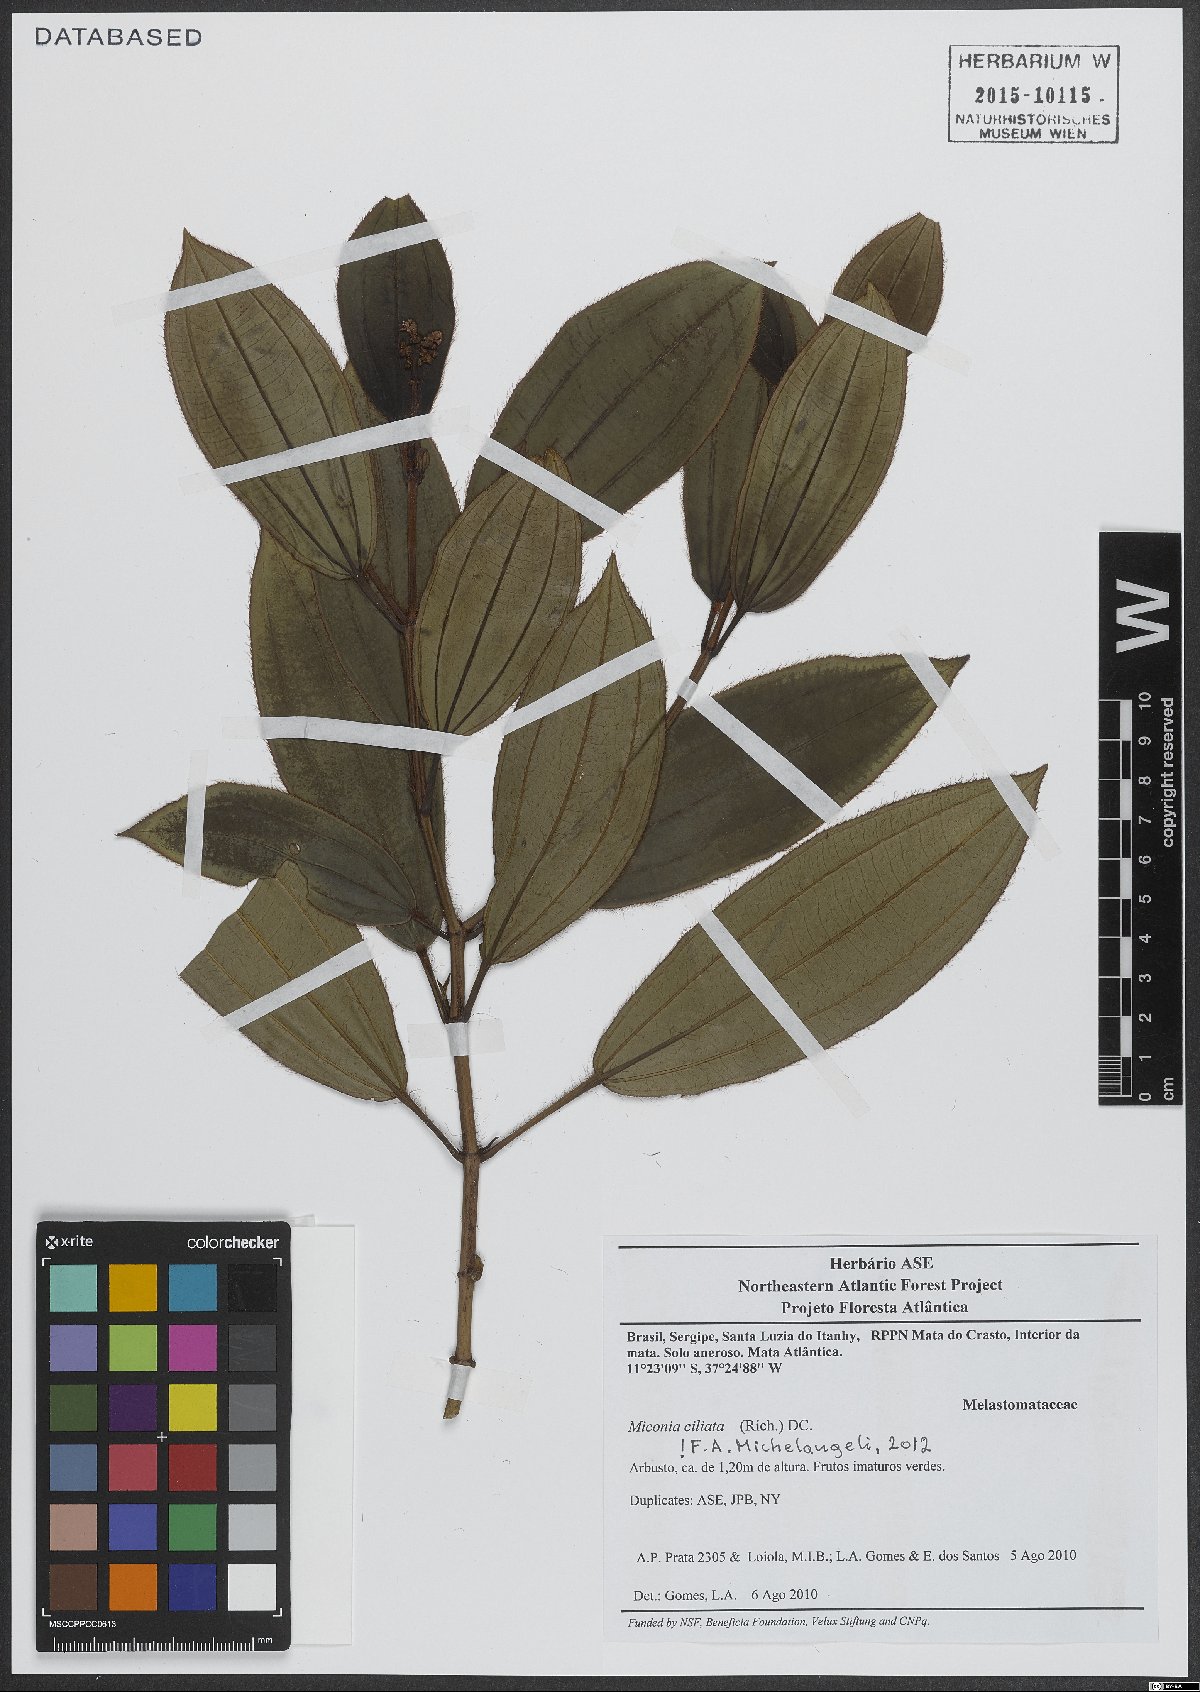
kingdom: Plantae
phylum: Tracheophyta
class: Magnoliopsida
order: Myrtales
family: Melastomataceae
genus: Miconia
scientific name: Miconia ciliata
